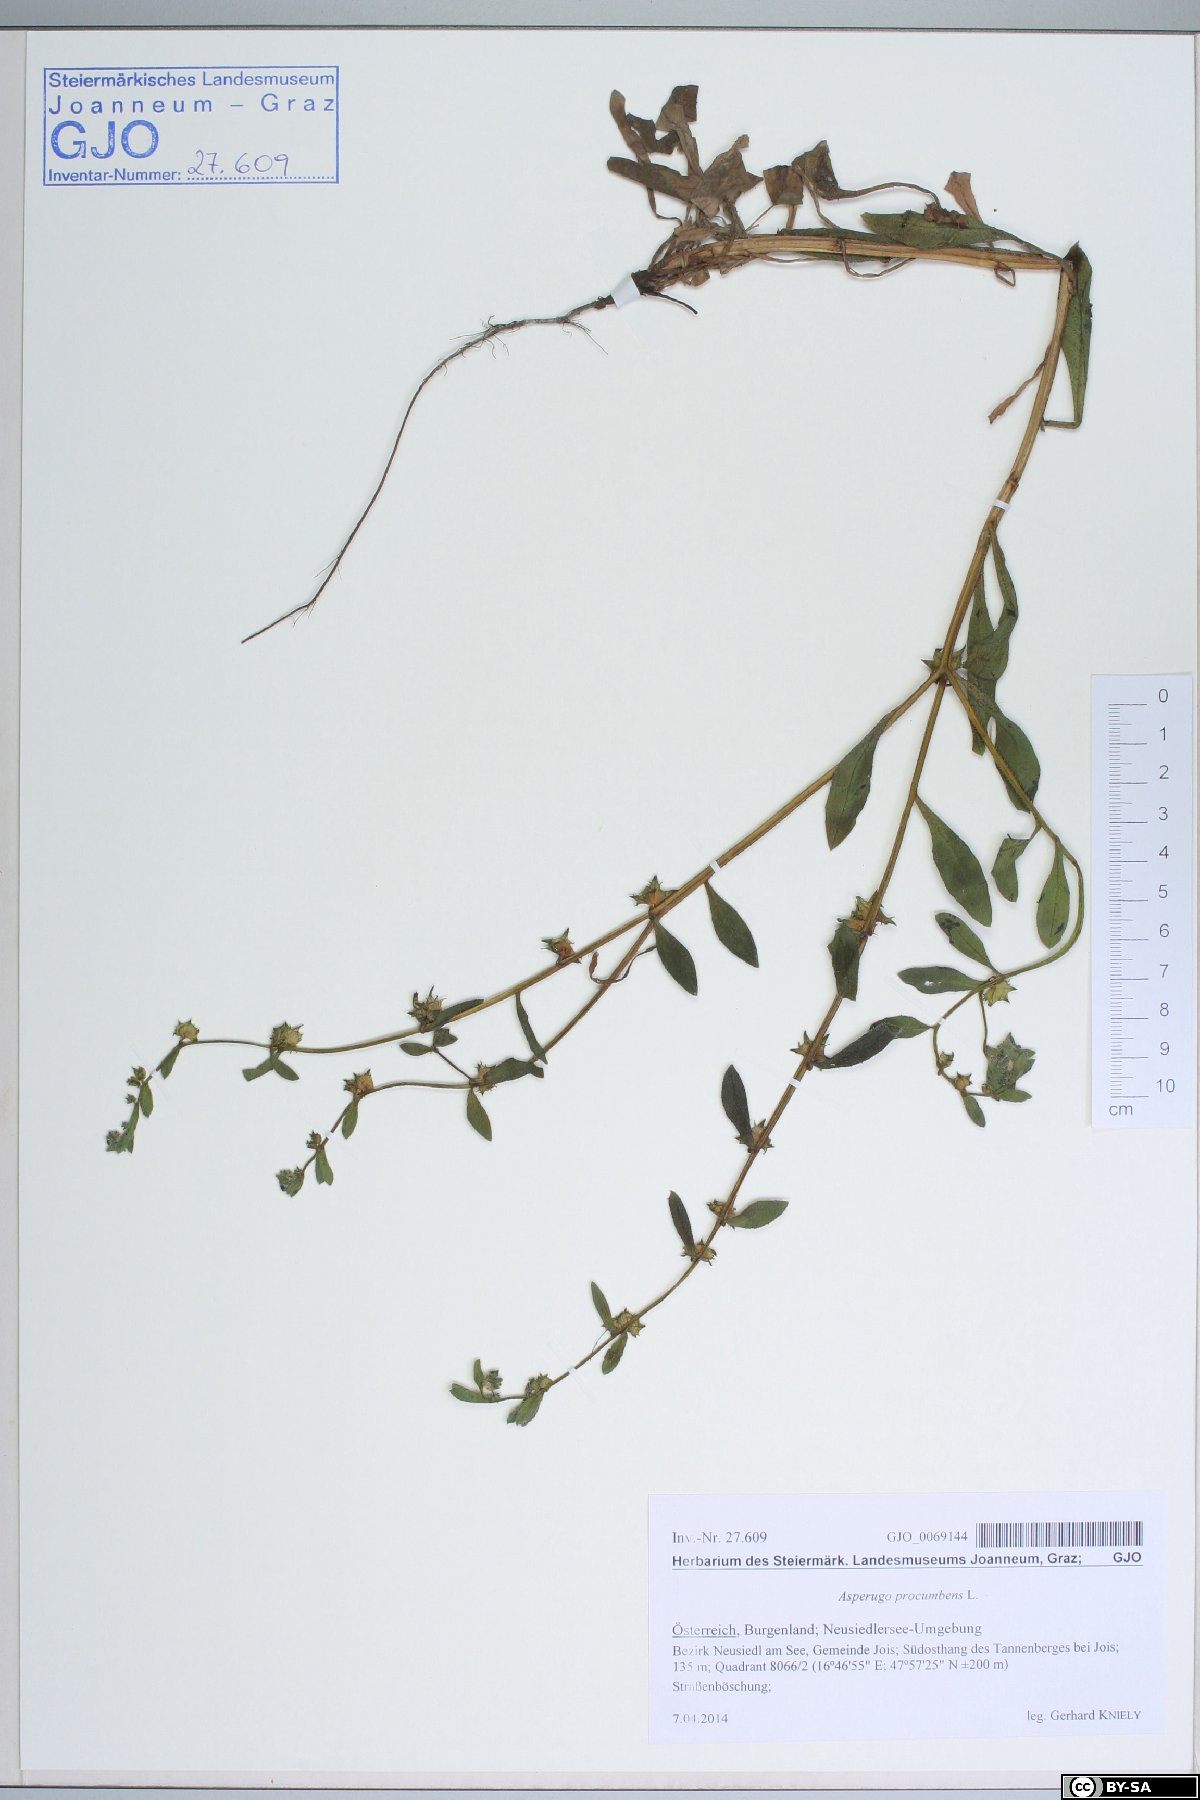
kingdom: Plantae
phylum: Tracheophyta
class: Magnoliopsida
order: Boraginales
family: Boraginaceae
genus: Asperugo
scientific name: Asperugo procumbens
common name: Madwort
